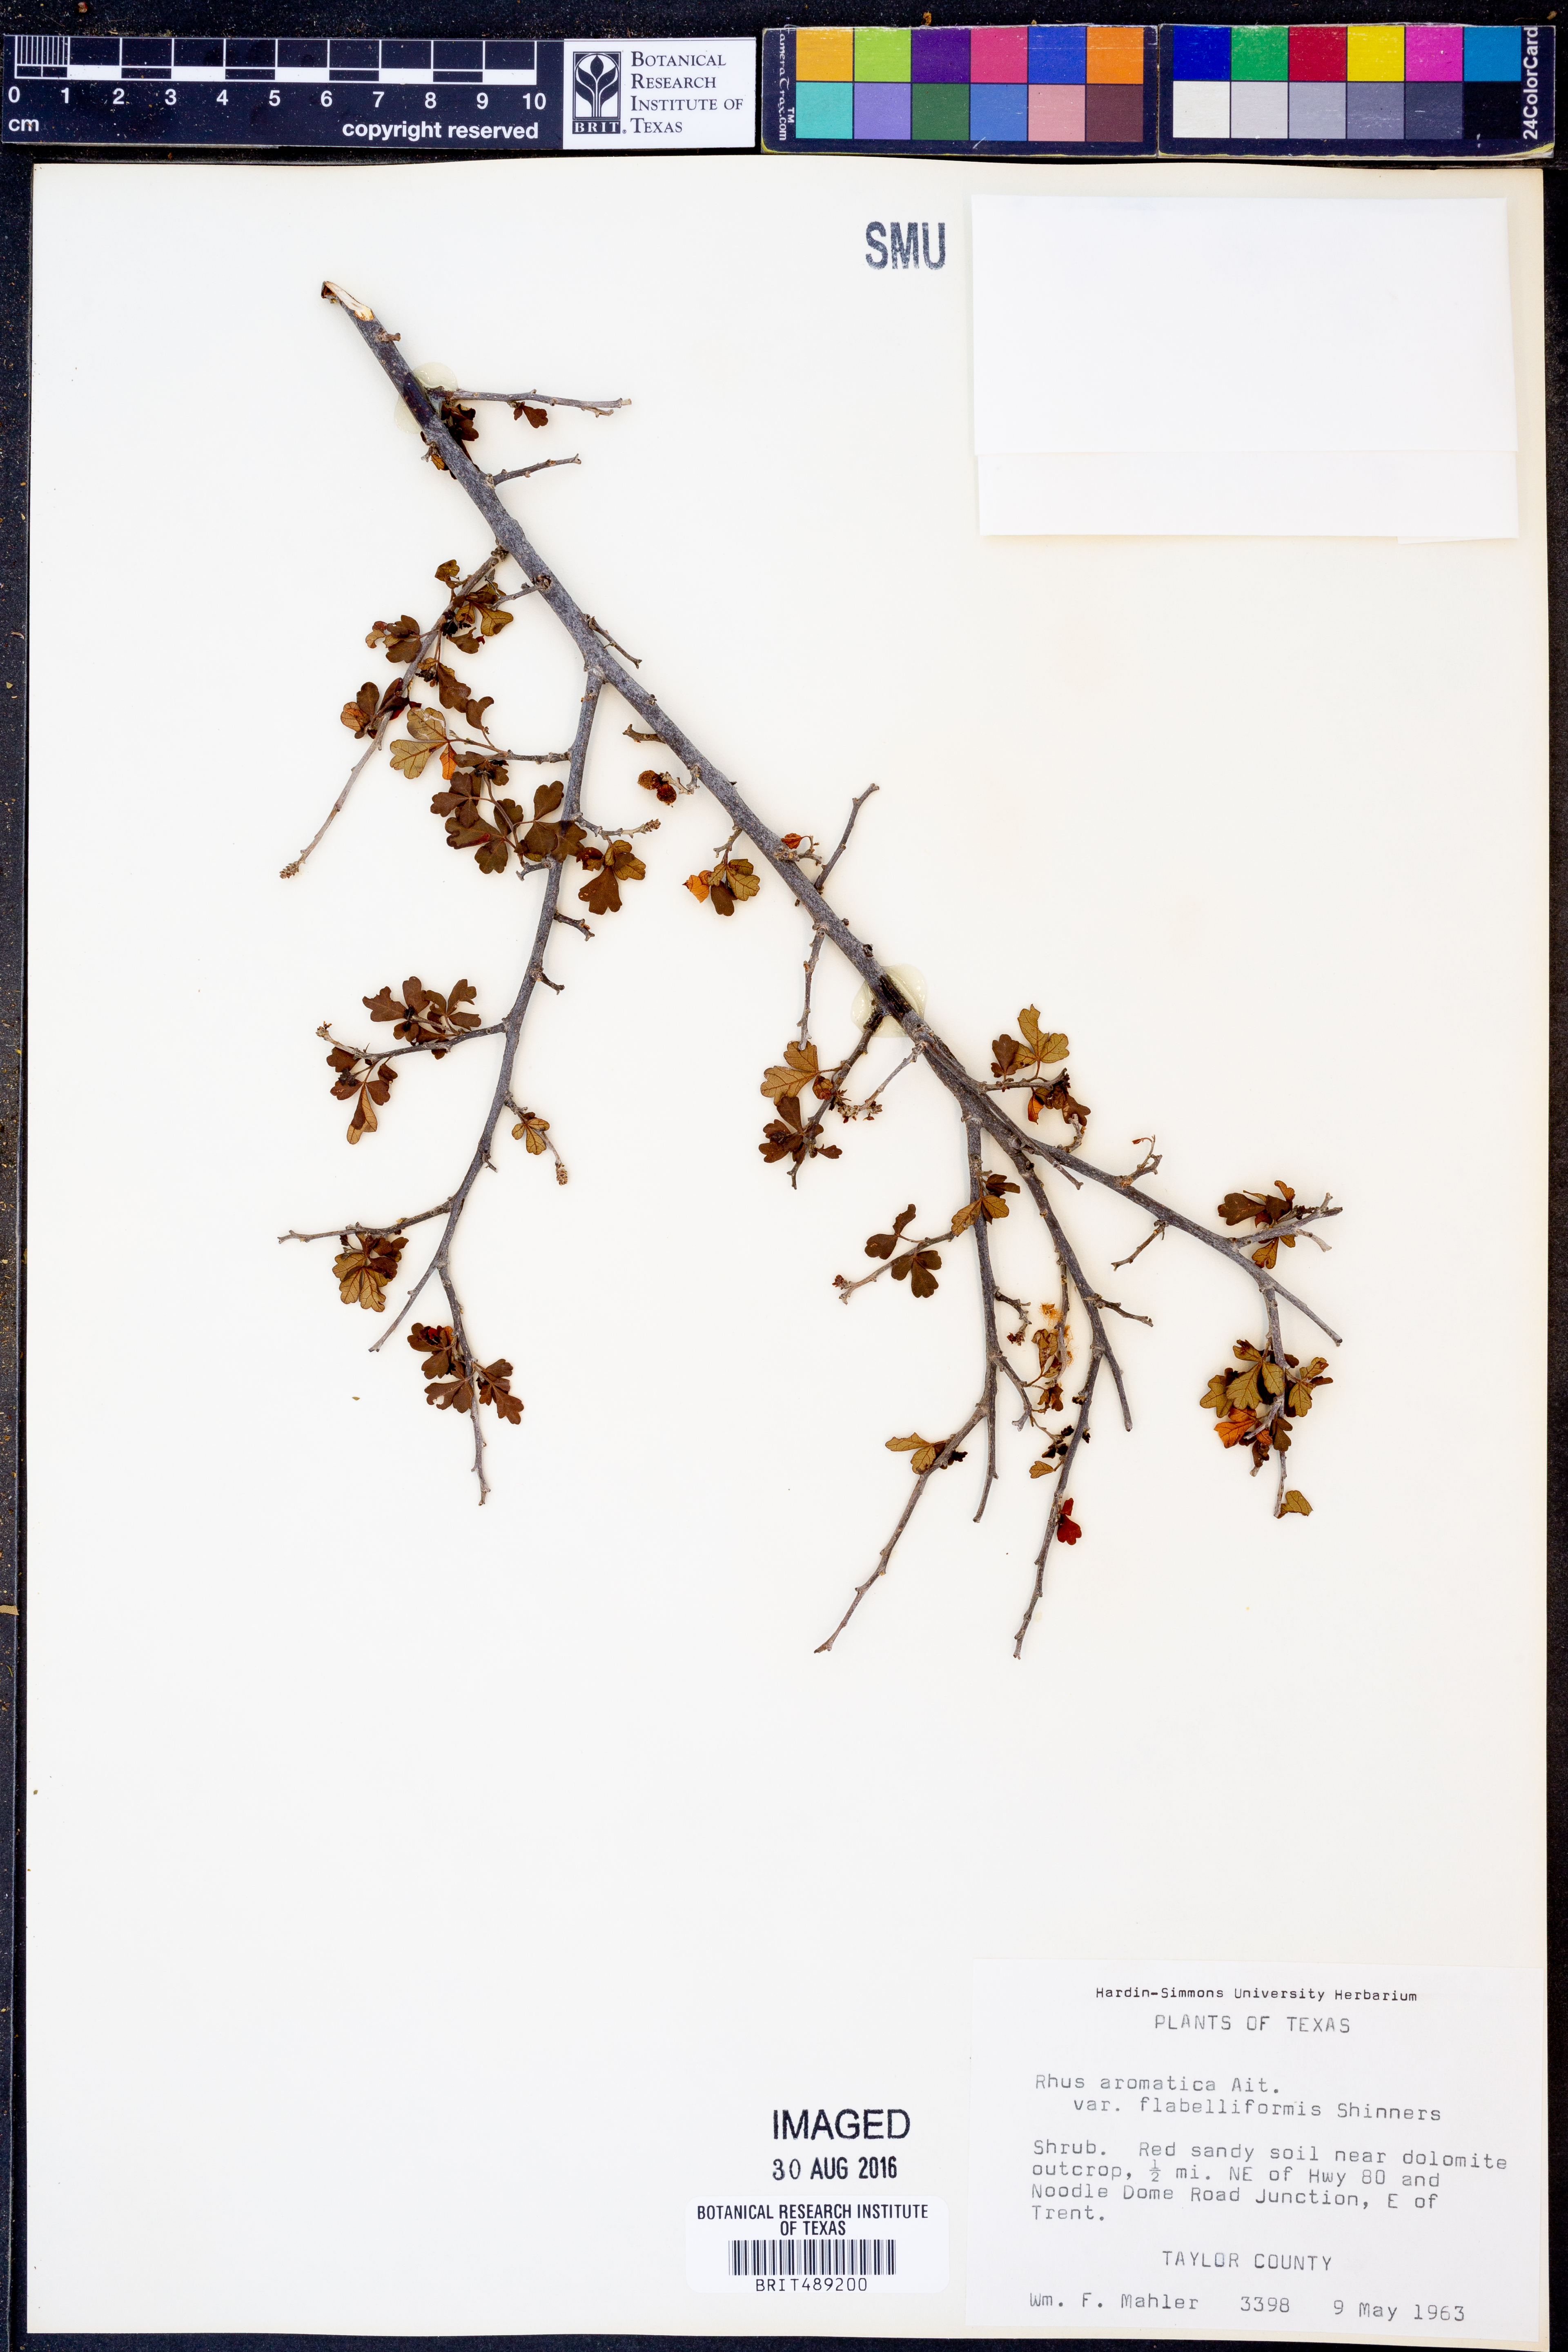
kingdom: Plantae
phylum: Tracheophyta
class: Magnoliopsida
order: Sapindales
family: Anacardiaceae
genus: Rhus
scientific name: Rhus trilobata
